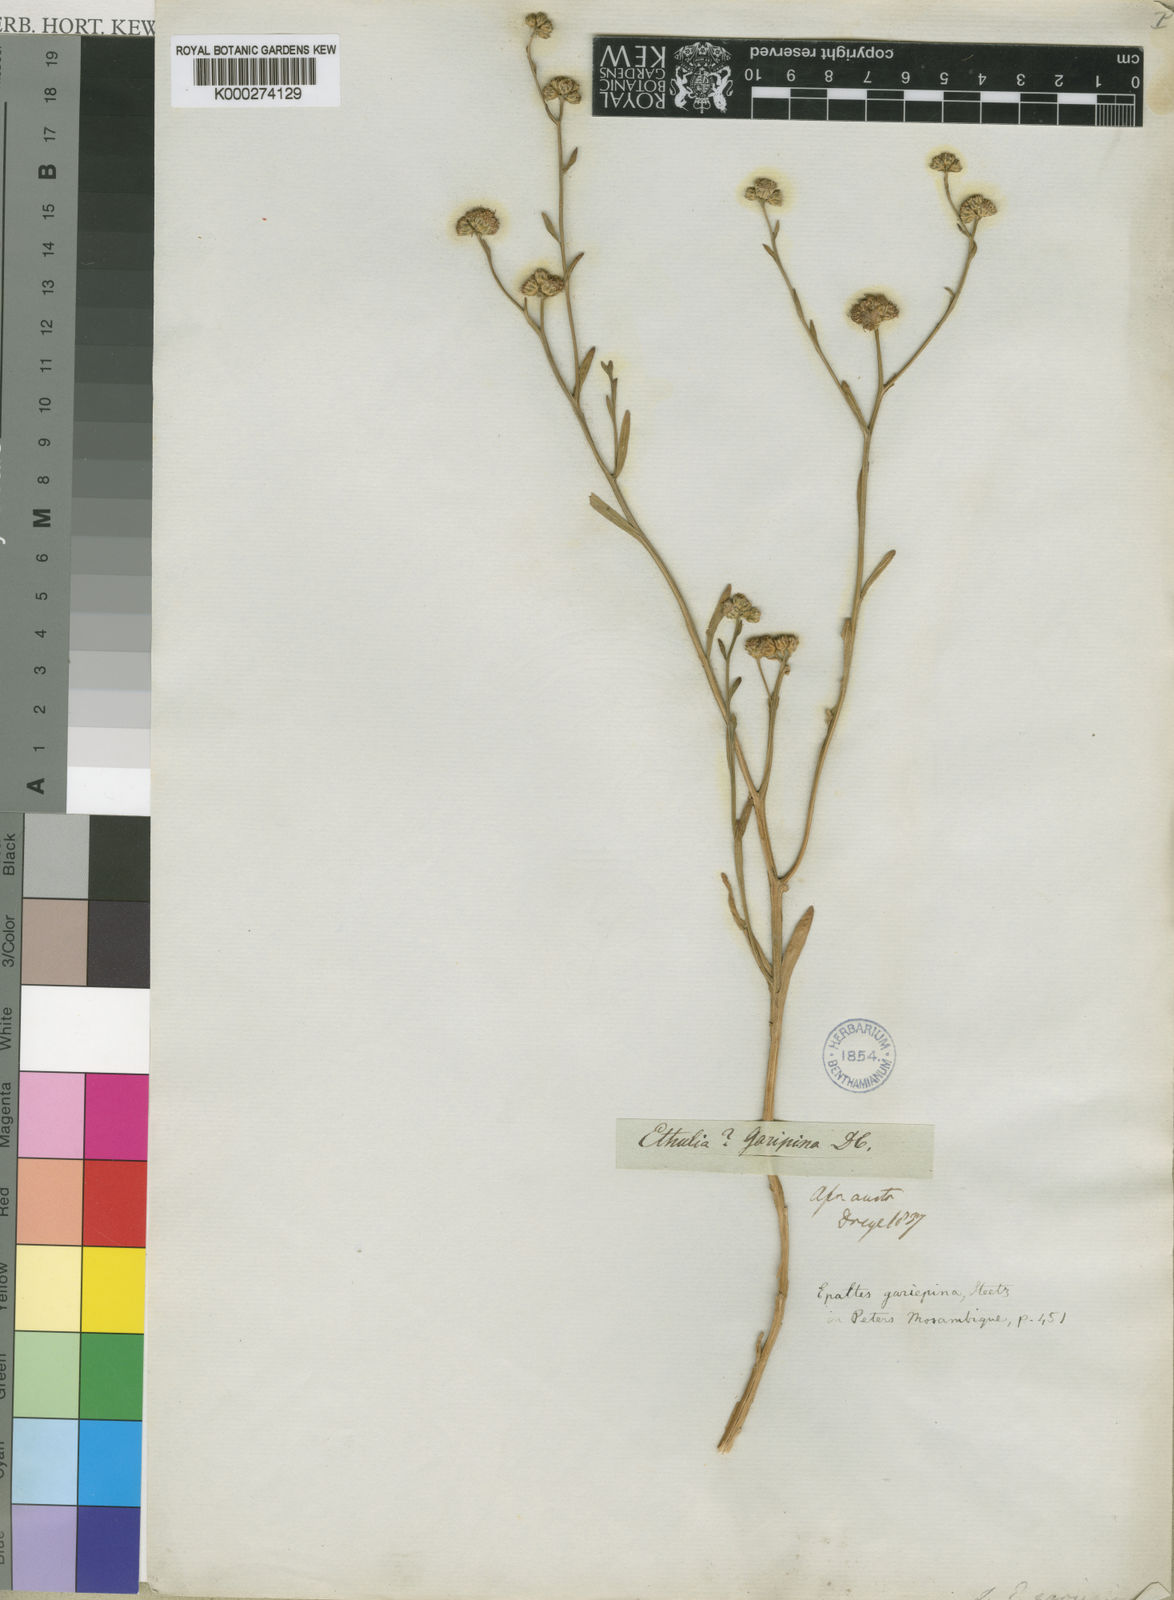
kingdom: Plantae
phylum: Tracheophyta
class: Magnoliopsida
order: Asterales
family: Asteraceae
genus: Litogyne
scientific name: Litogyne gariepina
